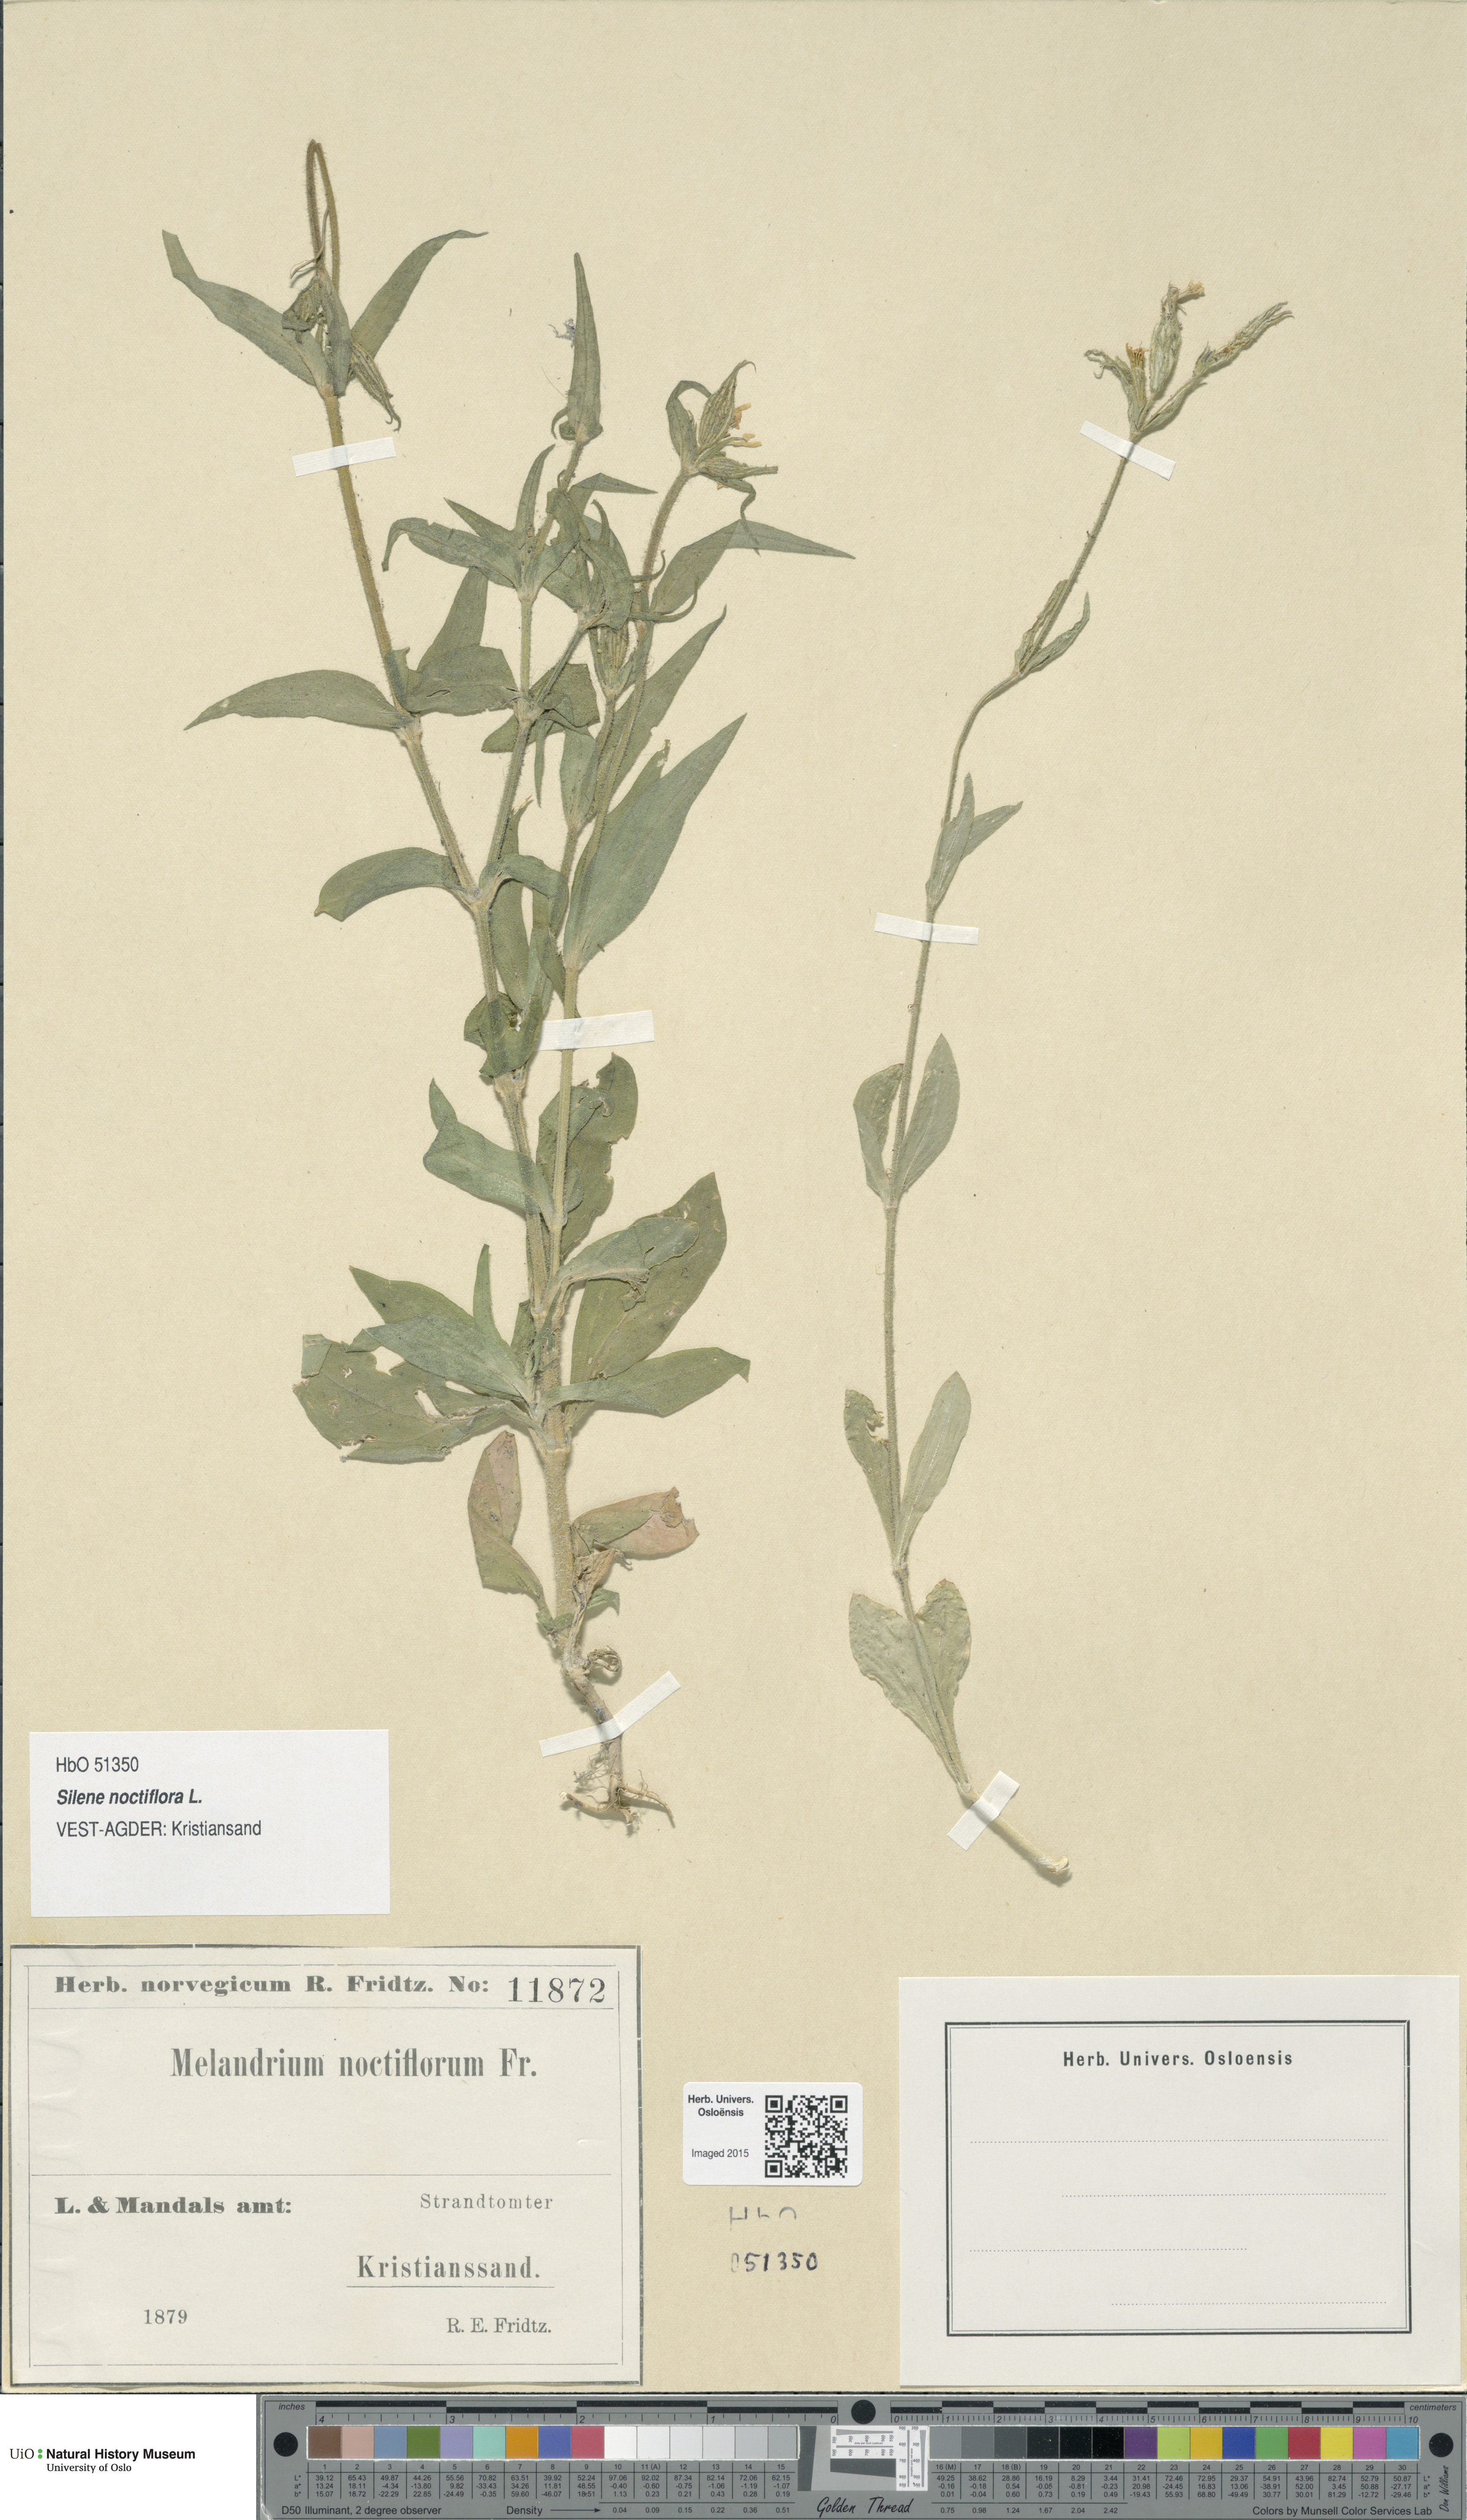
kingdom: Plantae
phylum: Tracheophyta
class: Magnoliopsida
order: Caryophyllales
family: Caryophyllaceae
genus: Silene
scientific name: Silene noctiflora
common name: Night-flowering catchfly
